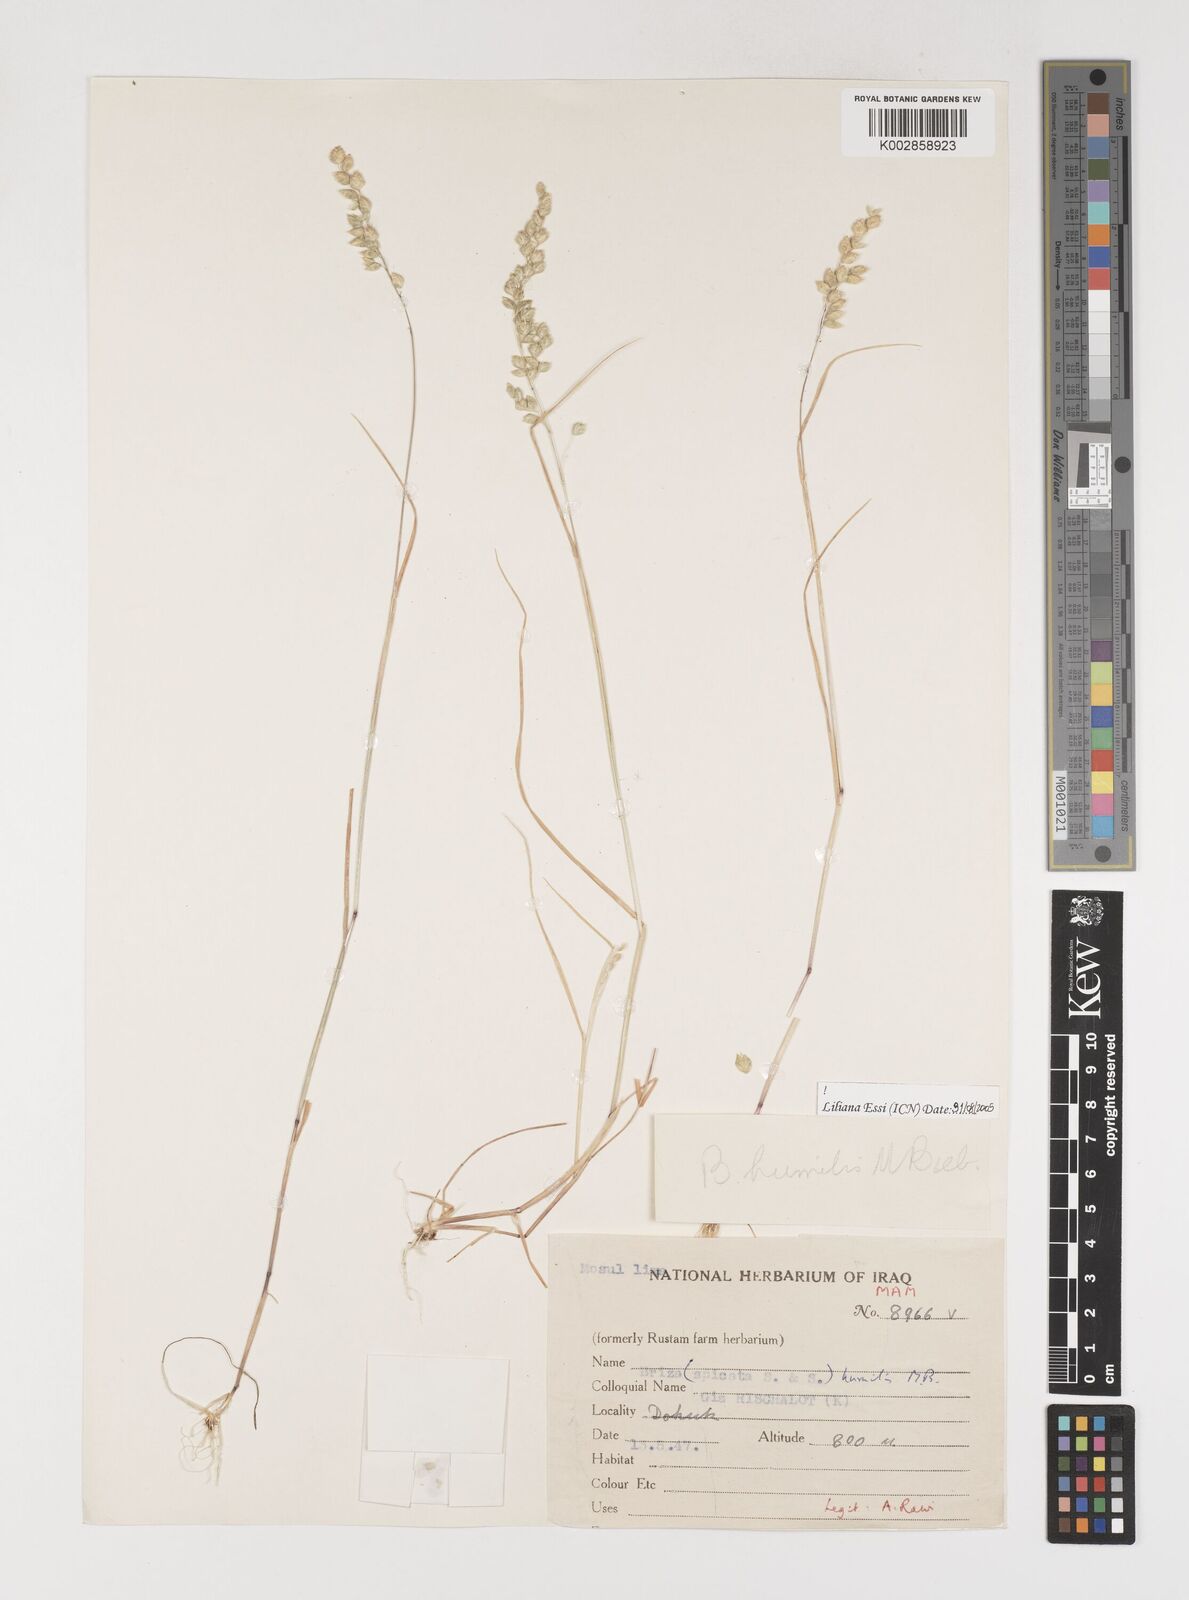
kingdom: Plantae
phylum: Tracheophyta
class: Liliopsida
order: Poales
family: Poaceae
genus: Briza
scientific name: Briza humilis
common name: Spiked quaking grass
